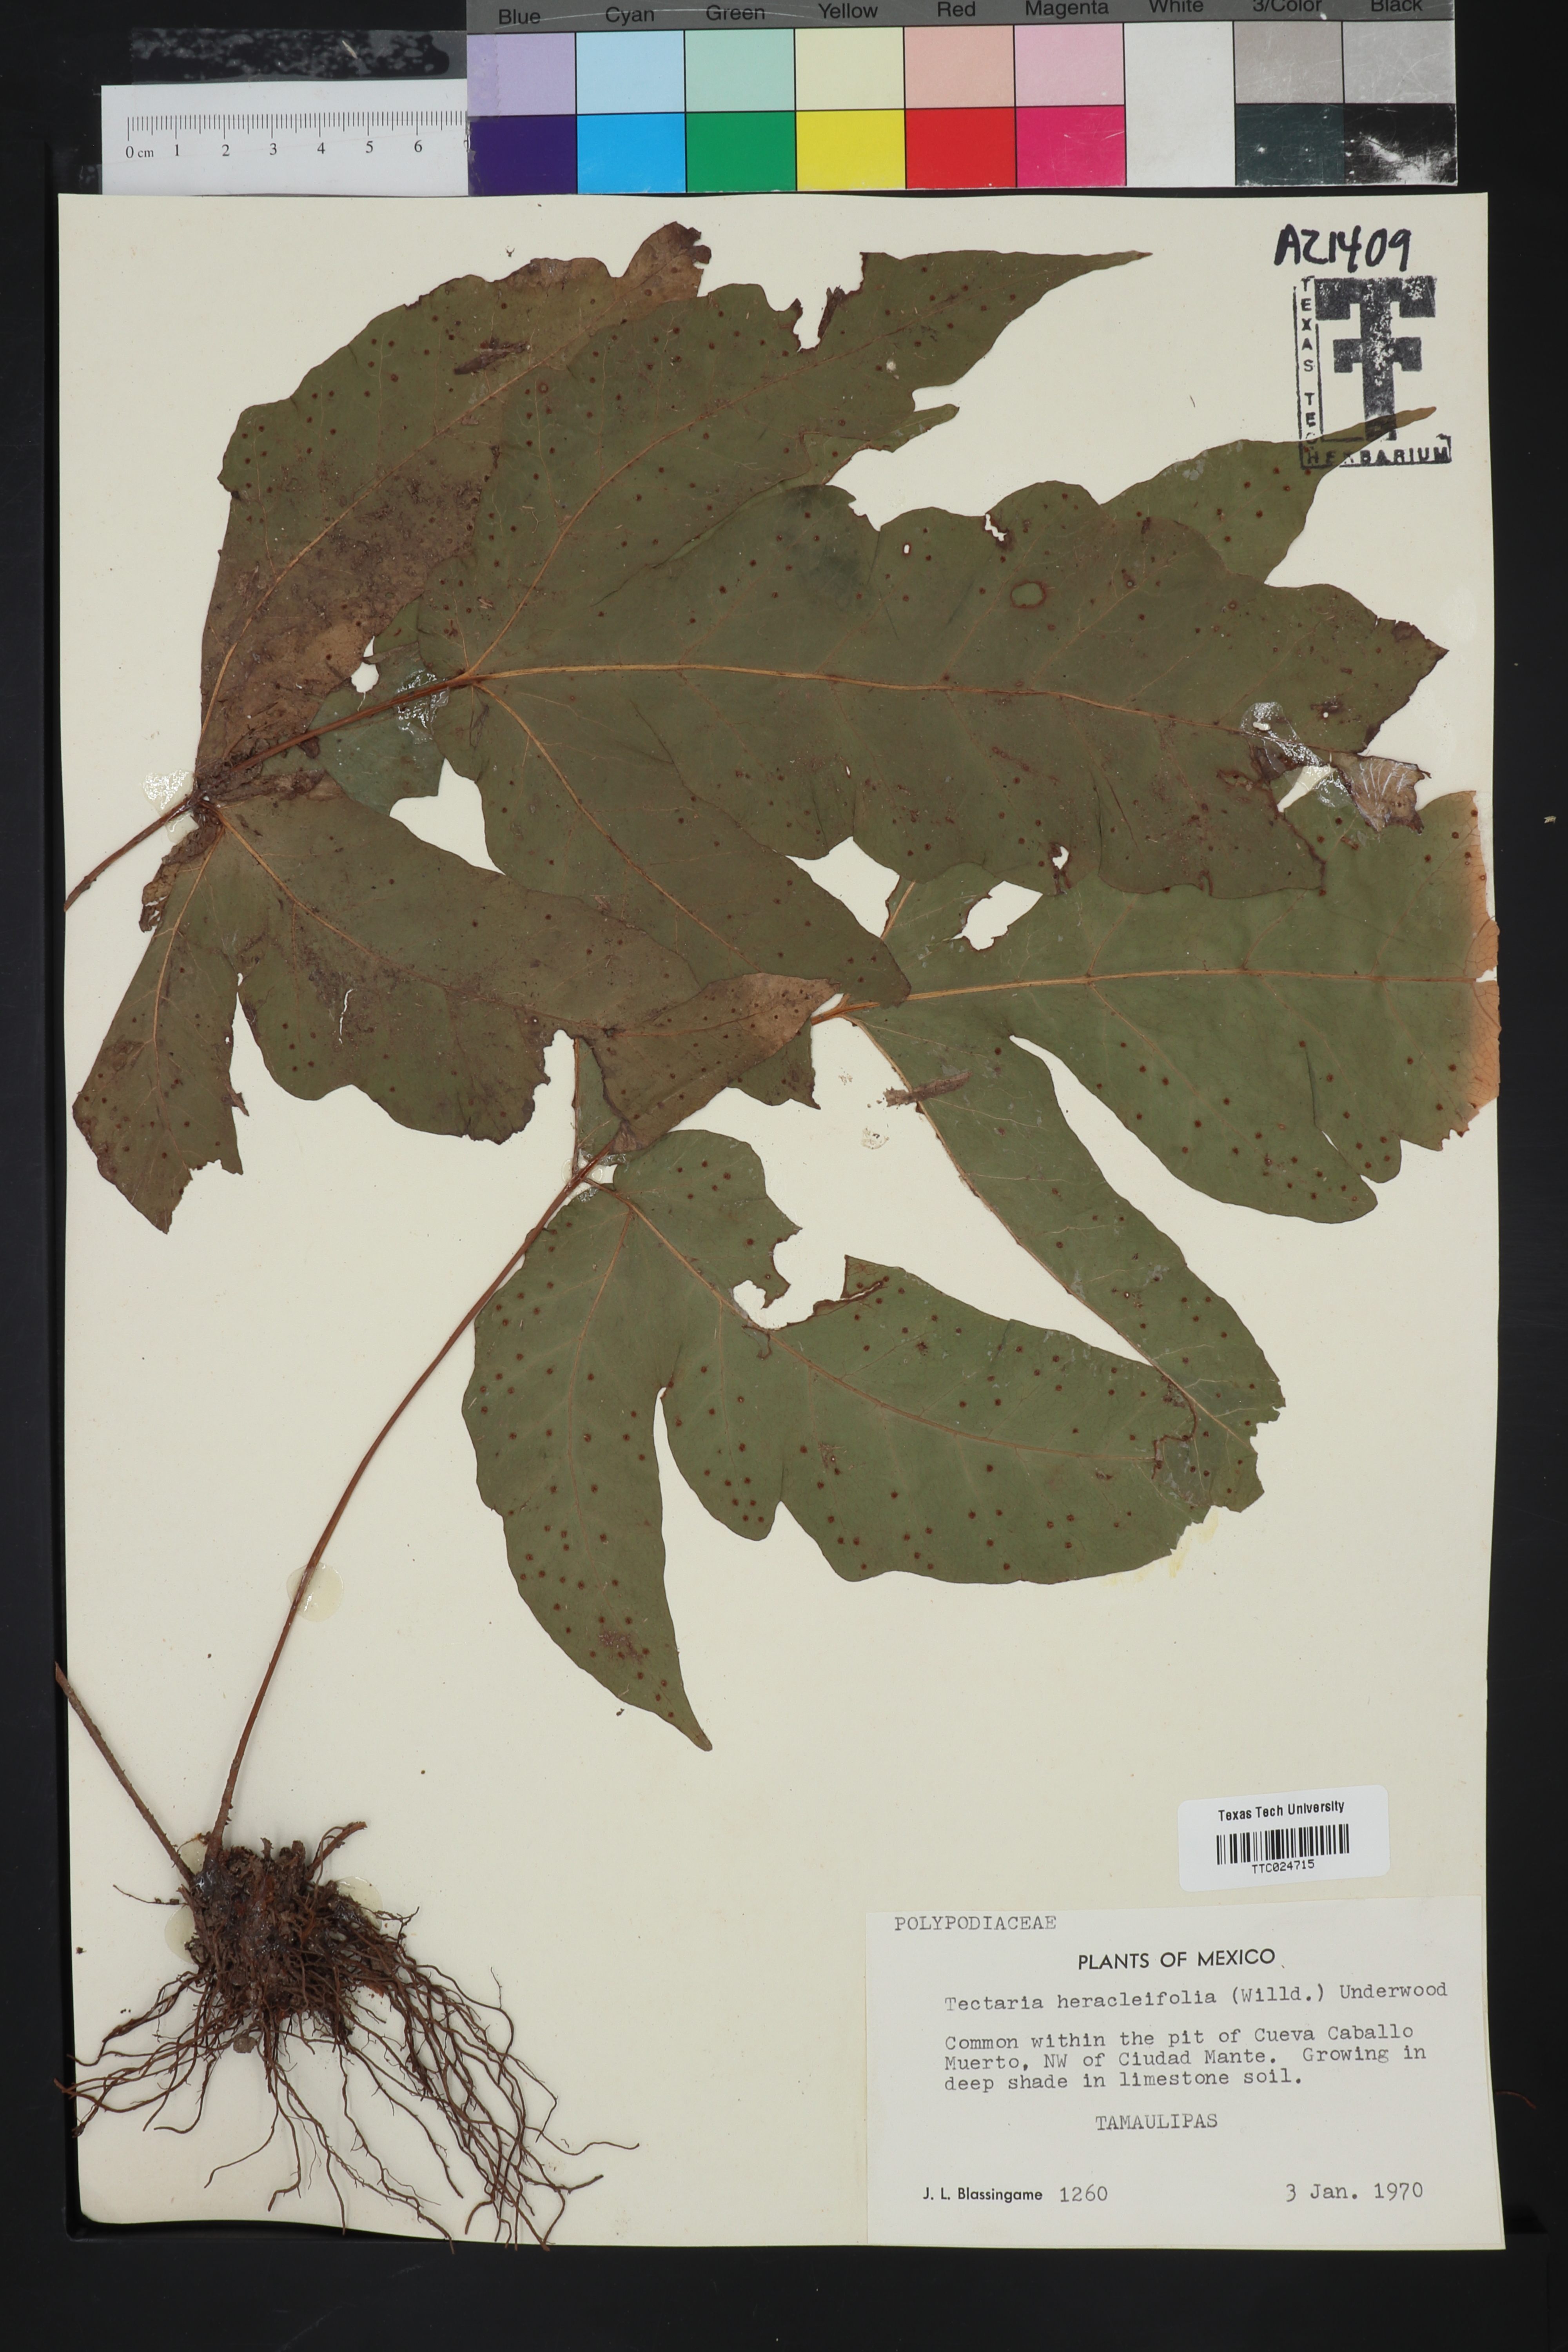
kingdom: Plantae
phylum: Tracheophyta
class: Polypodiopsida
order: Polypodiales
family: Tectariaceae
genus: Tectaria
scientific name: Tectaria heracleifolia
